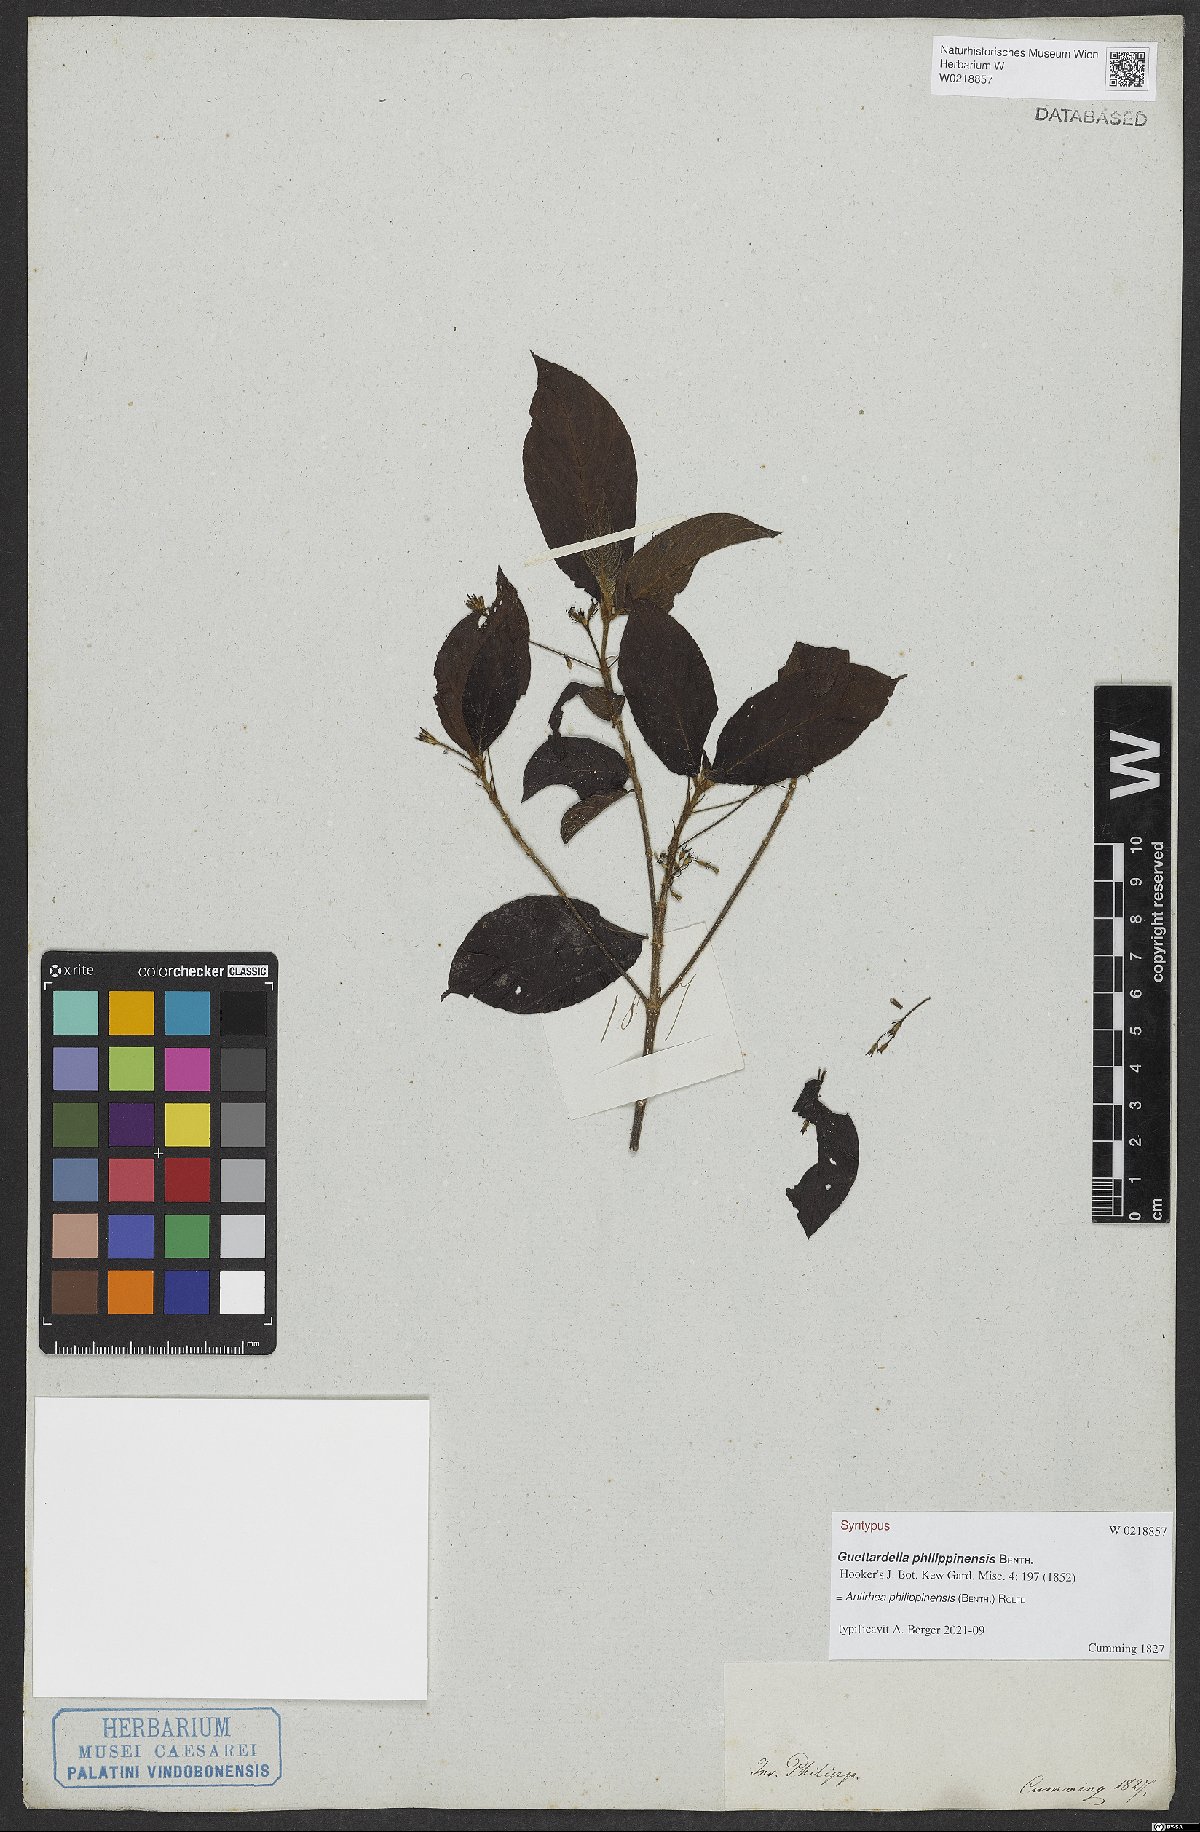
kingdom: Plantae
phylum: Tracheophyta
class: Magnoliopsida
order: Gentianales
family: Rubiaceae
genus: Guettardella
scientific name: Guettardella philippinensis
